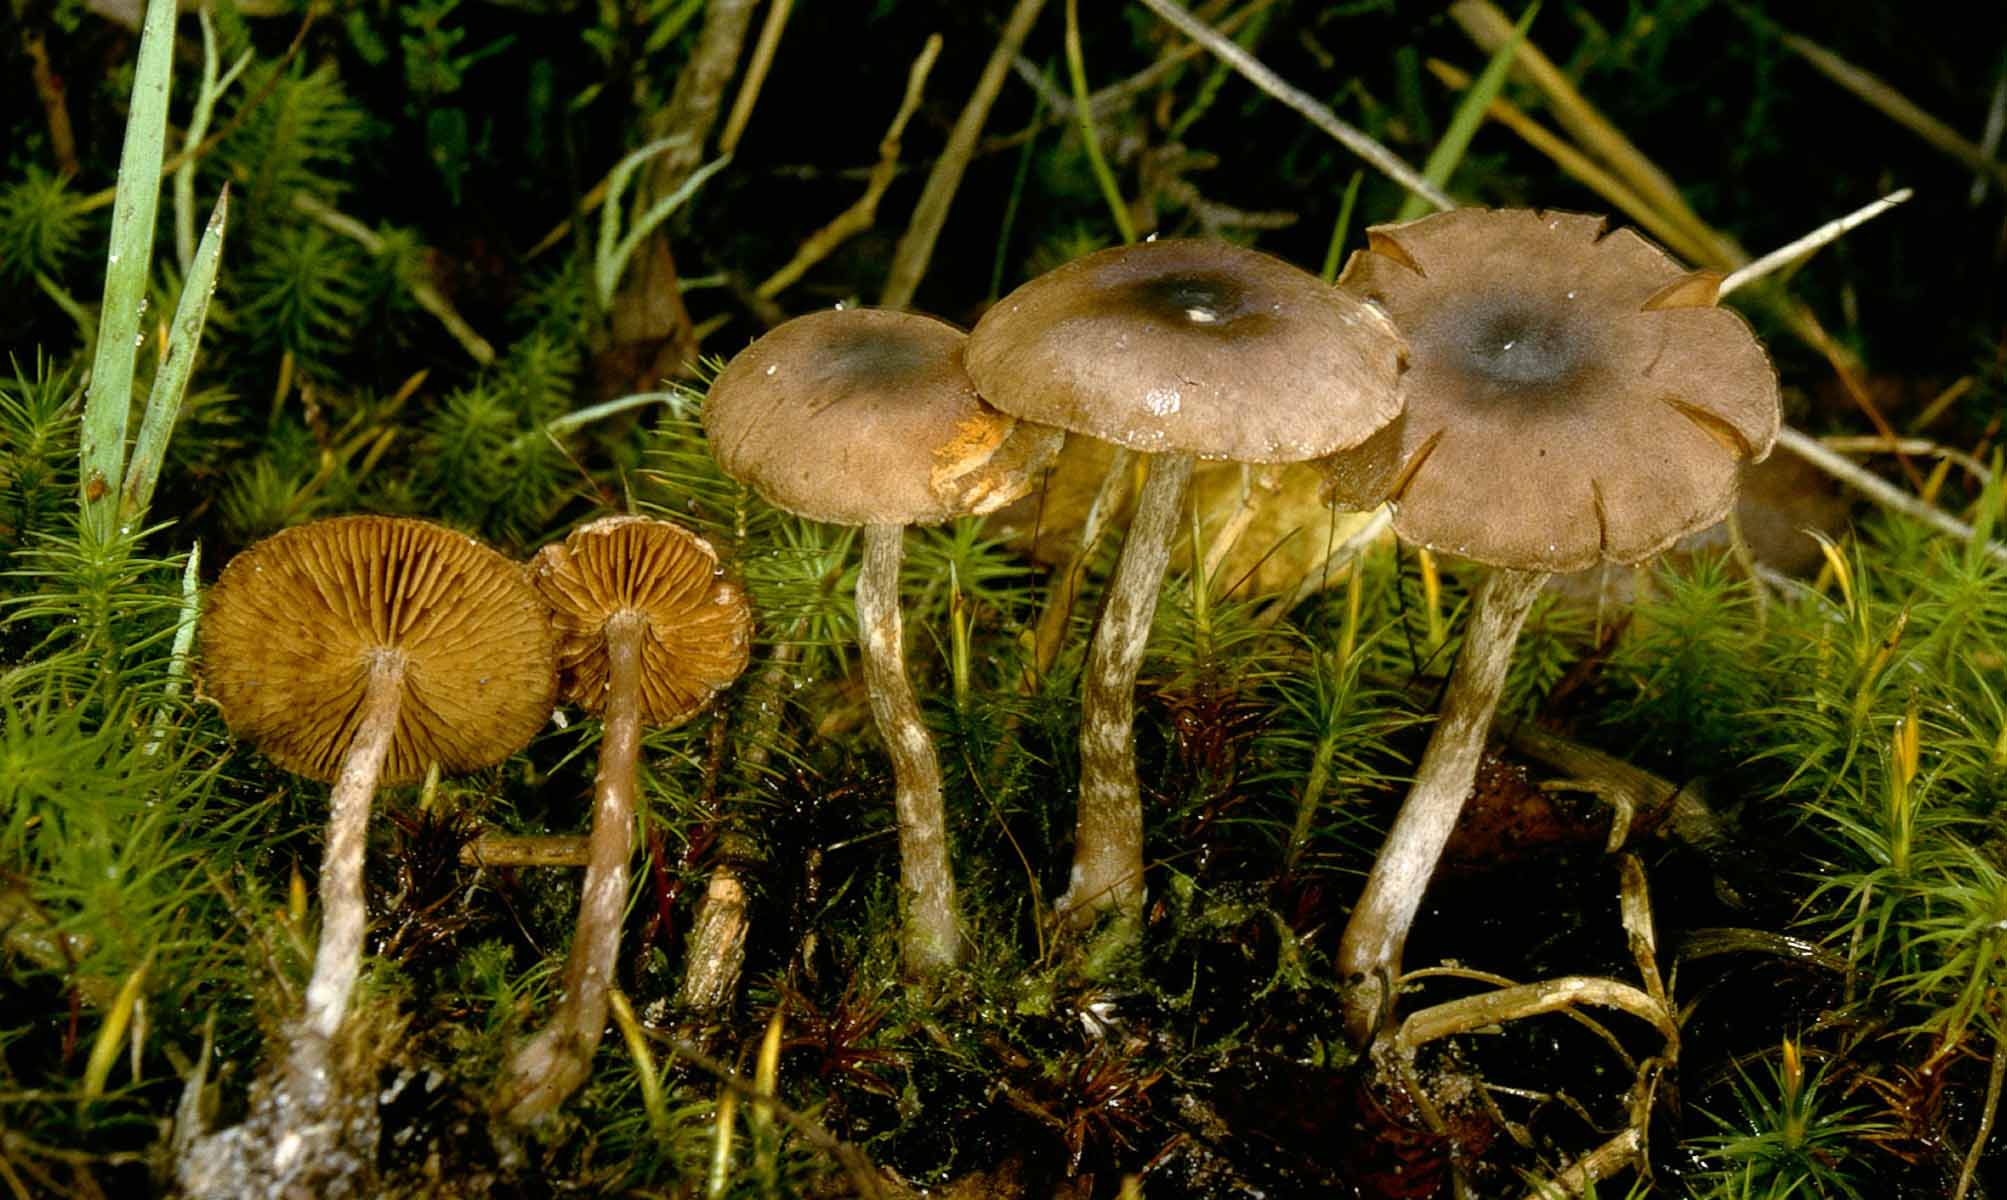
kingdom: Fungi
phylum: Basidiomycota
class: Agaricomycetes
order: Agaricales
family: Cortinariaceae
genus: Cortinarius
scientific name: Cortinarius decipiens
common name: blåsort slørhat
